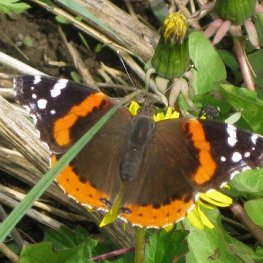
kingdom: Animalia
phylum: Arthropoda
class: Insecta
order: Lepidoptera
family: Nymphalidae
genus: Vanessa
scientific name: Vanessa atalanta
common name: Red Admiral
